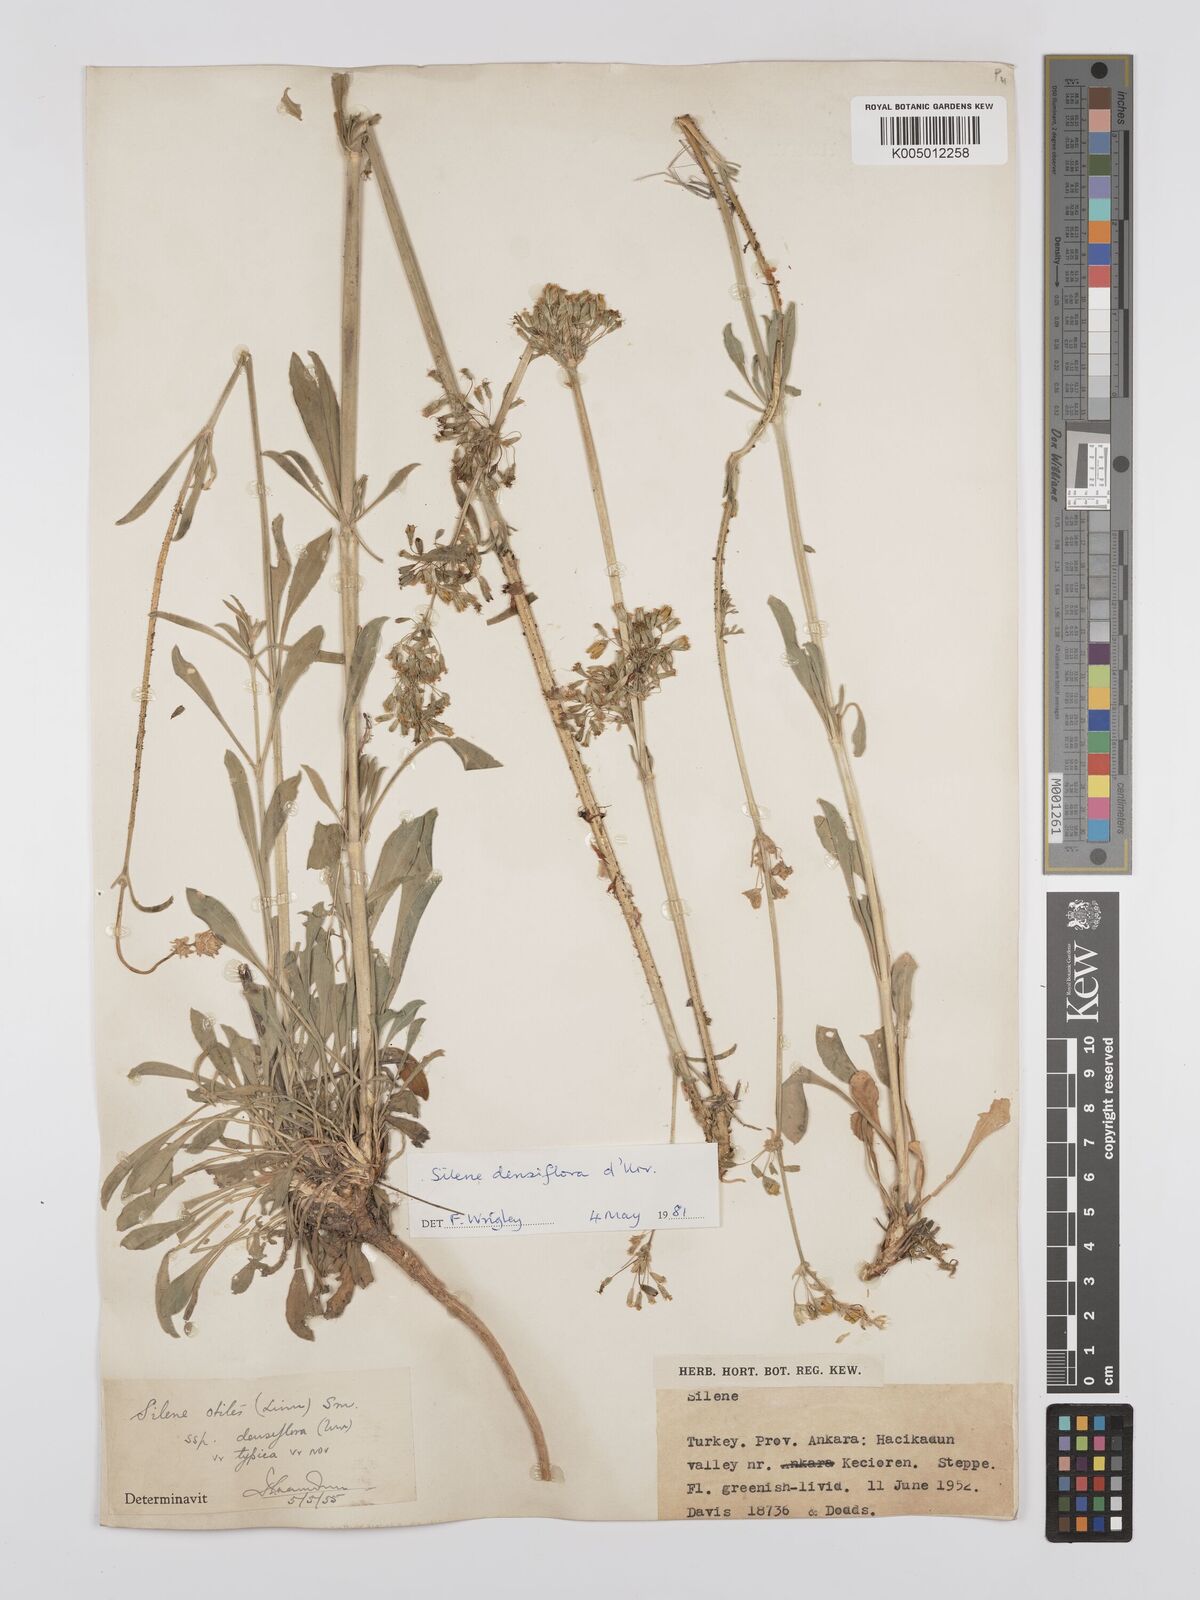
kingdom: Plantae
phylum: Tracheophyta
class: Magnoliopsida
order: Caryophyllales
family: Caryophyllaceae
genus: Silene
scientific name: Silene densiflora
